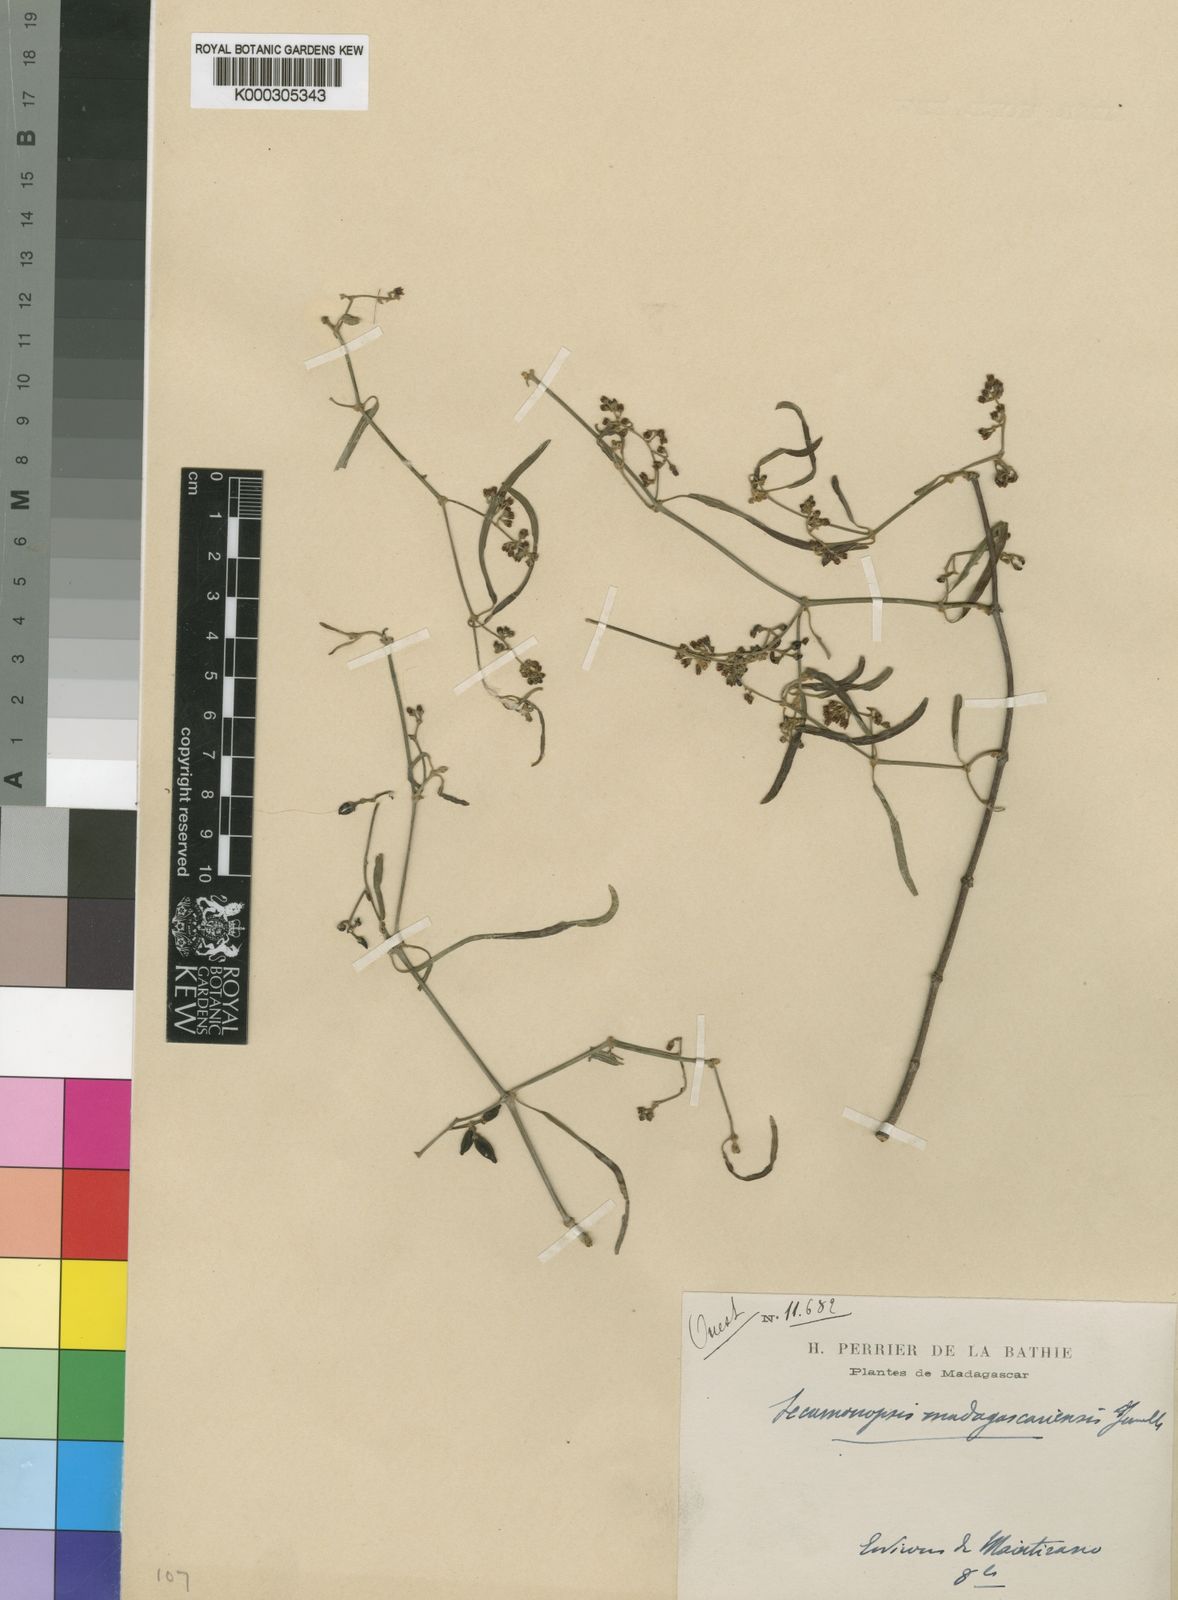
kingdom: Plantae
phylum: Tracheophyta
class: Magnoliopsida
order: Gentianales
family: Apocynaceae
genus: Secamonopsis
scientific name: Secamonopsis madagascariensis
